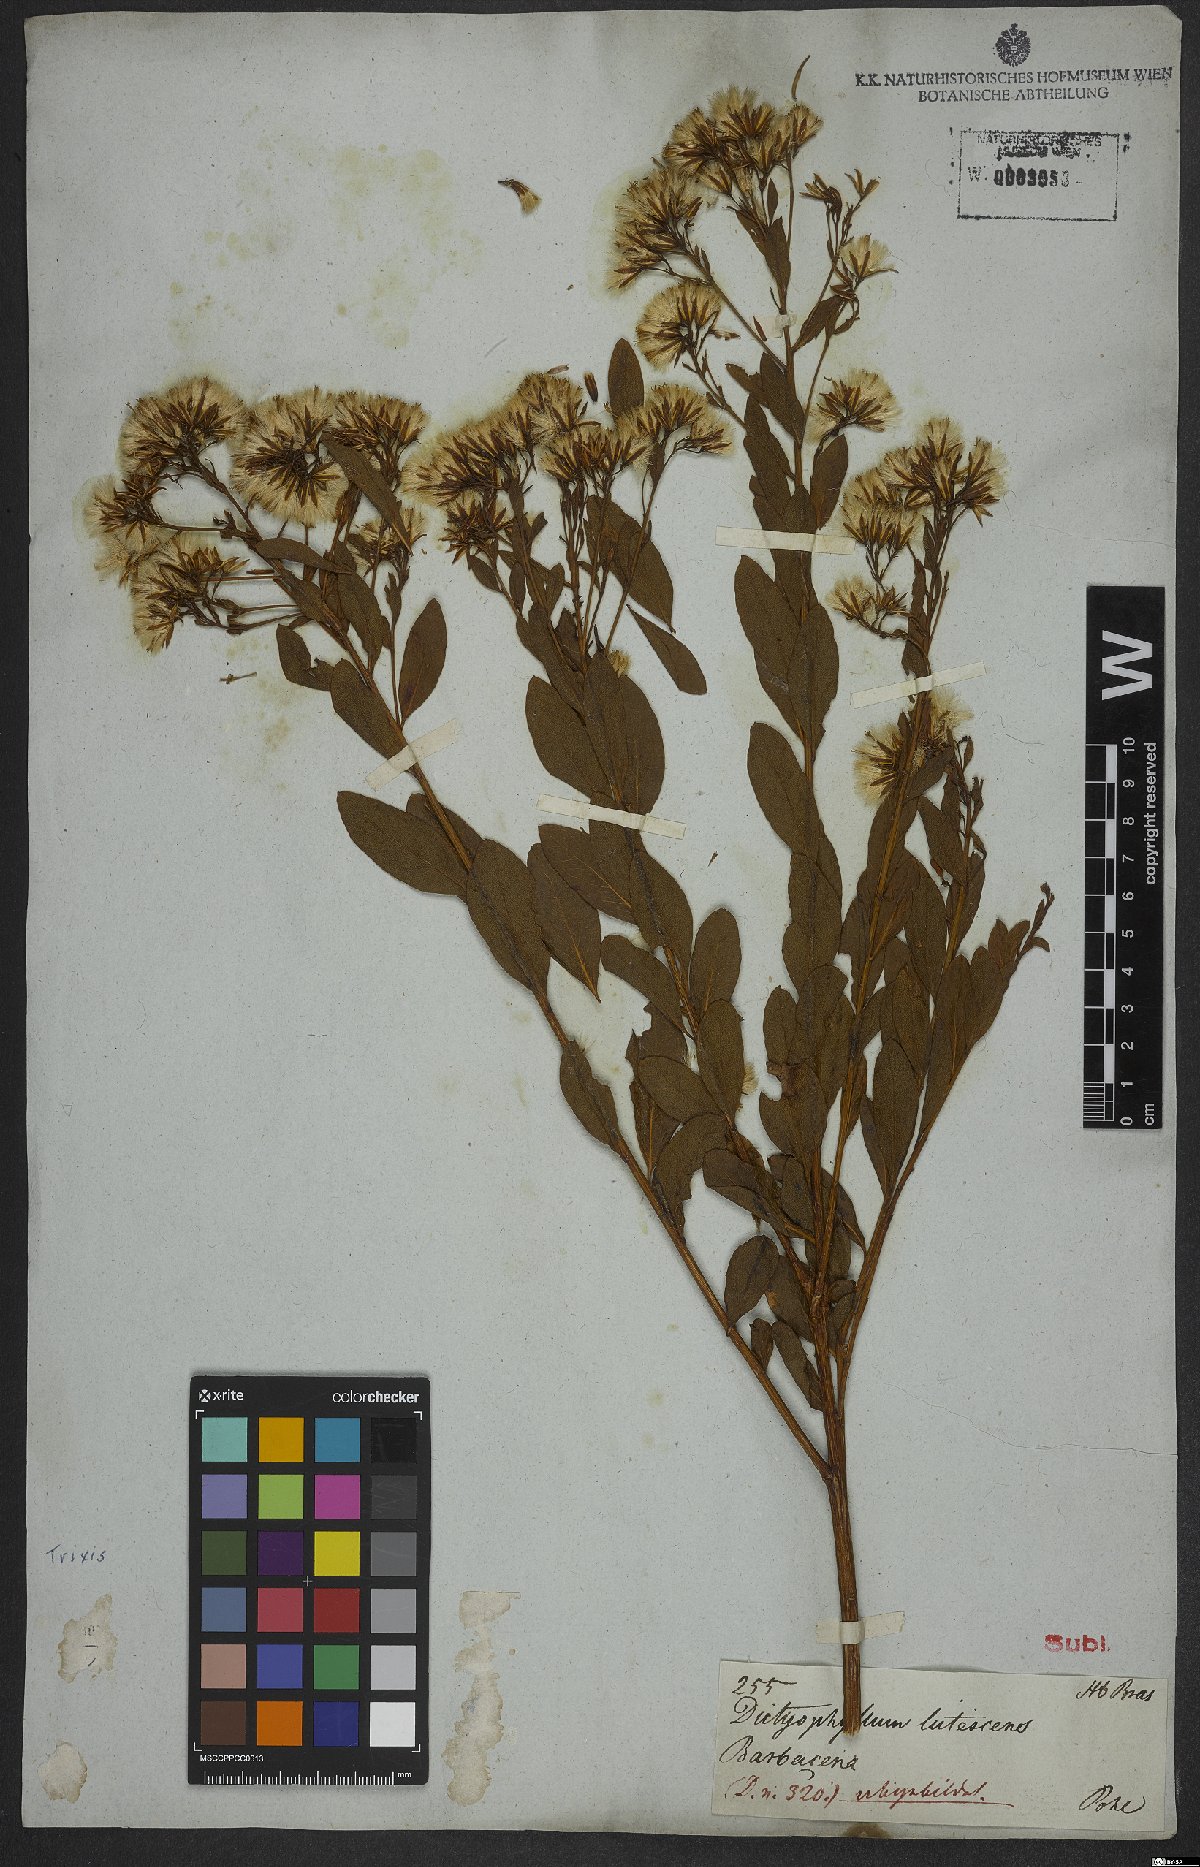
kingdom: Plantae
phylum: Tracheophyta
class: Magnoliopsida
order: Asterales
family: Asteraceae
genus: Trixis
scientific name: Trixis
